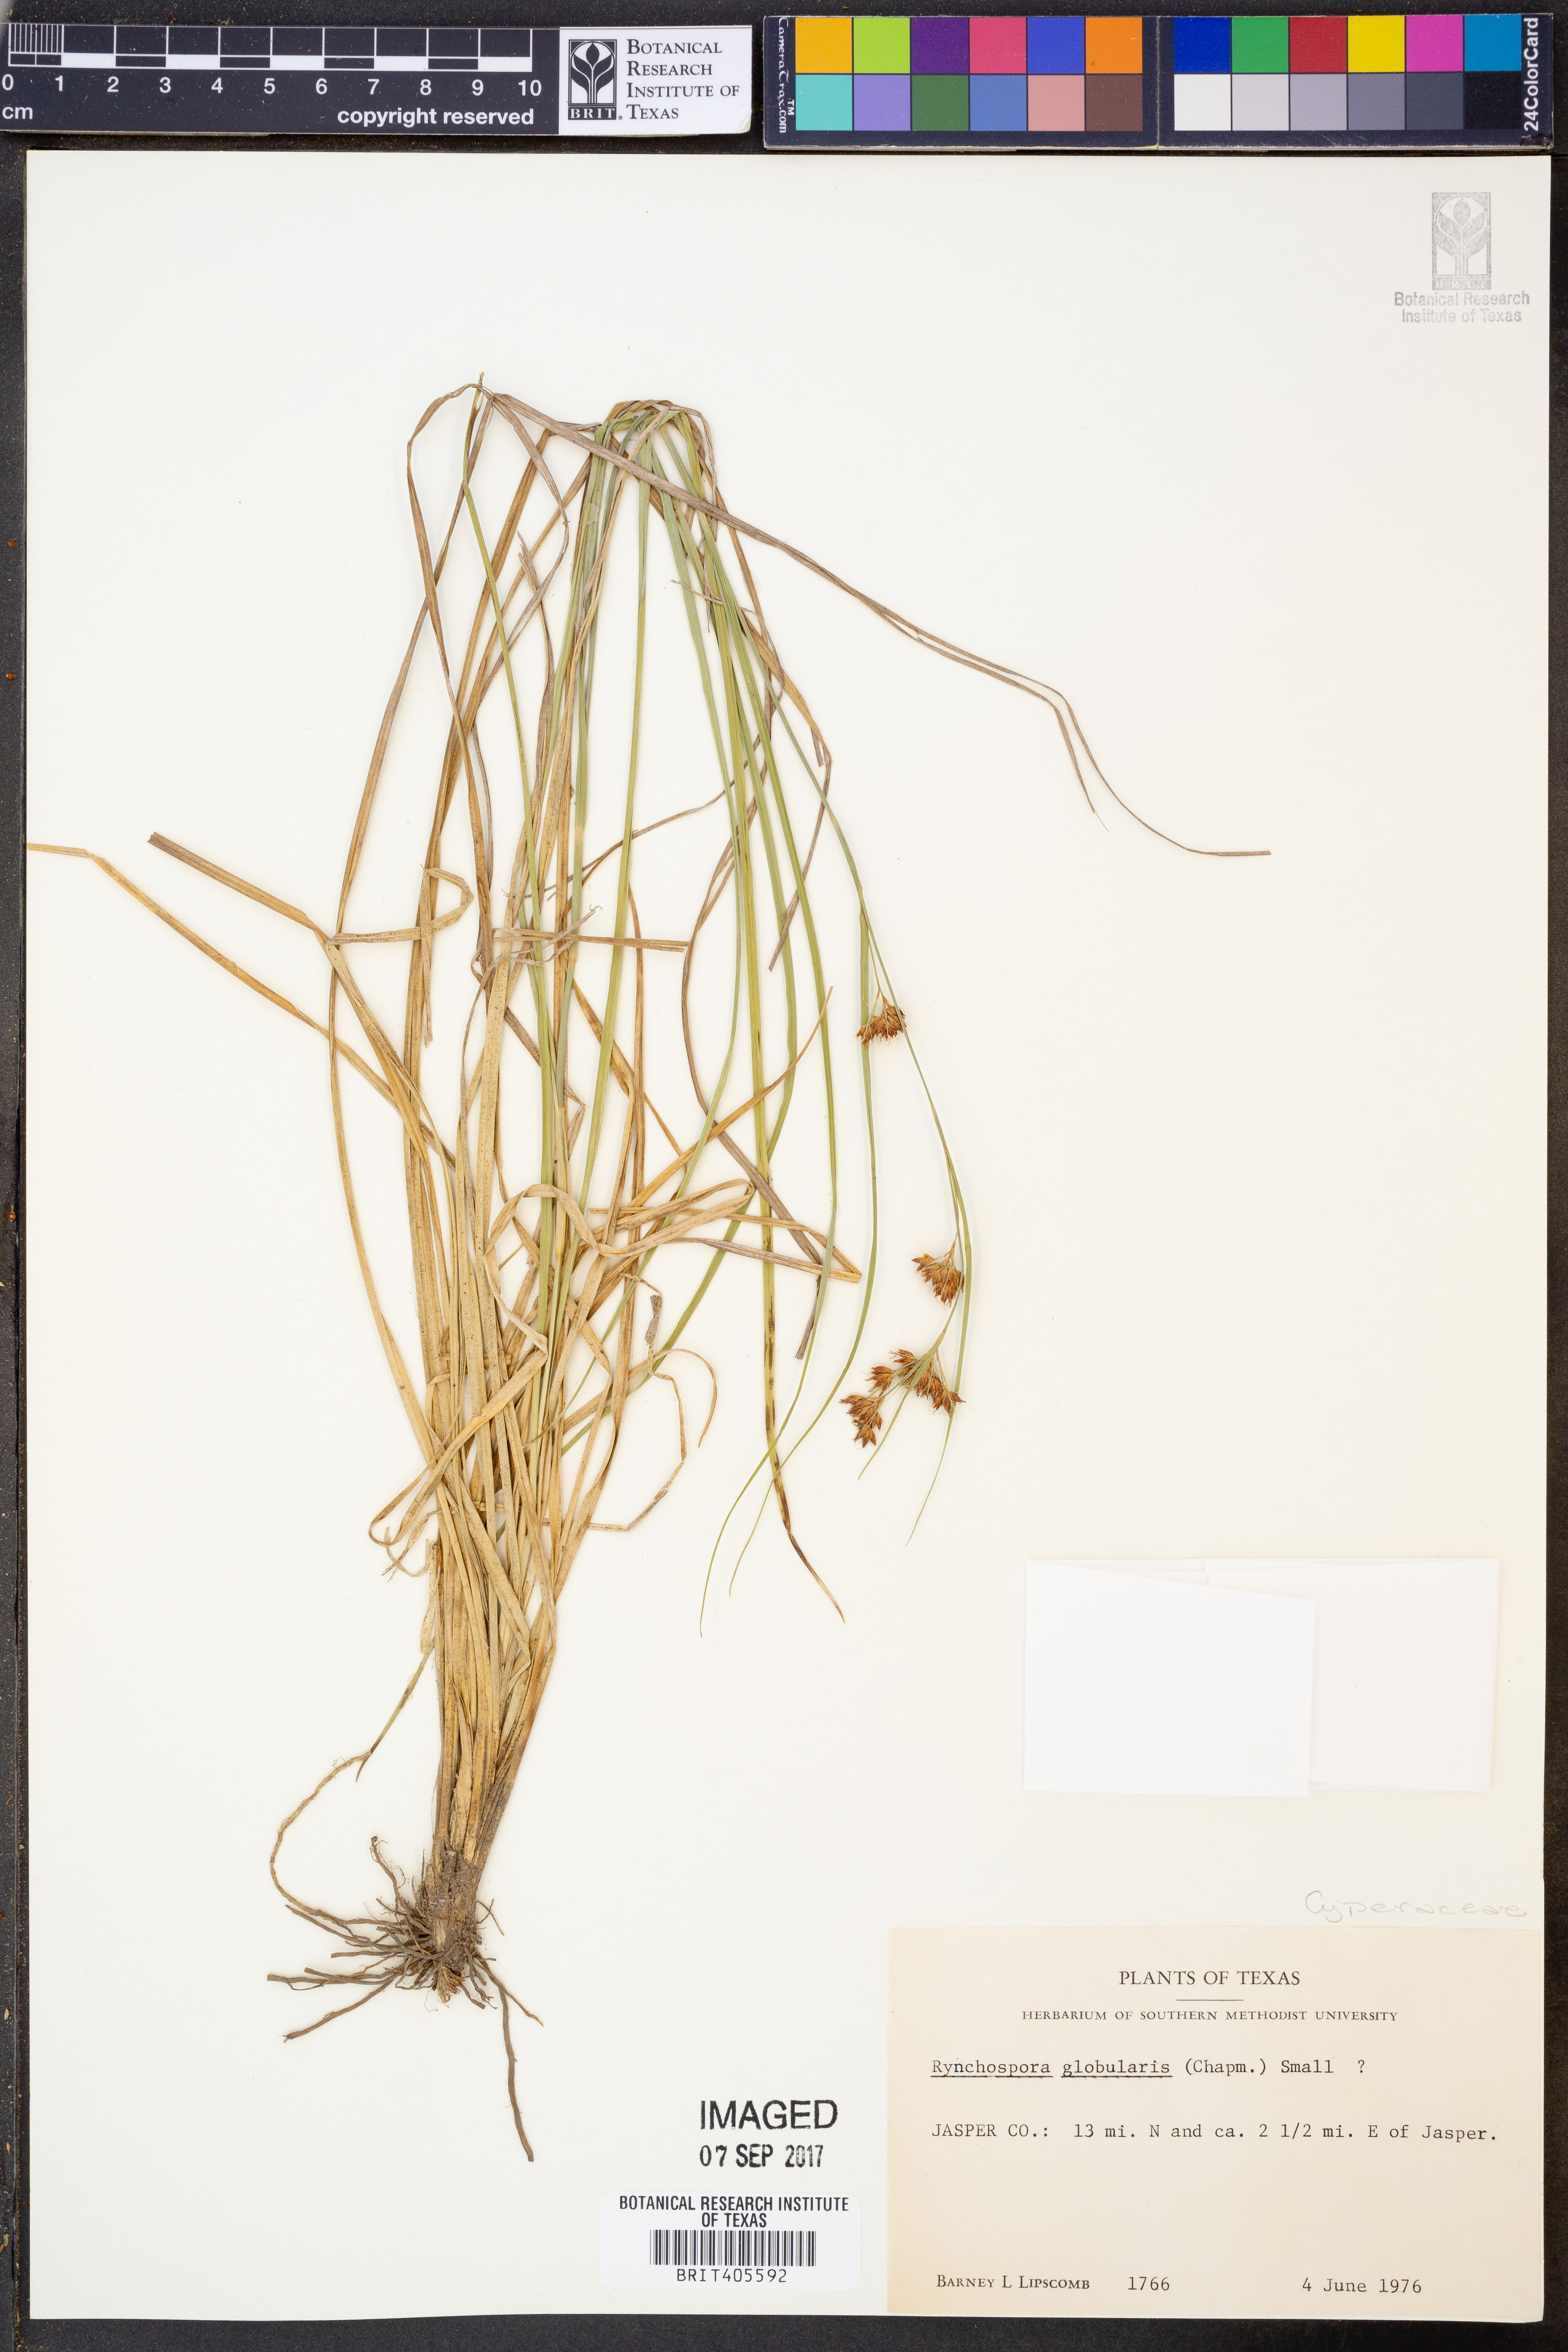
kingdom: Plantae
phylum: Tracheophyta
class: Liliopsida
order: Poales
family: Cyperaceae
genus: Rhynchospora
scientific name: Rhynchospora globularis
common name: Globe beaksedge
